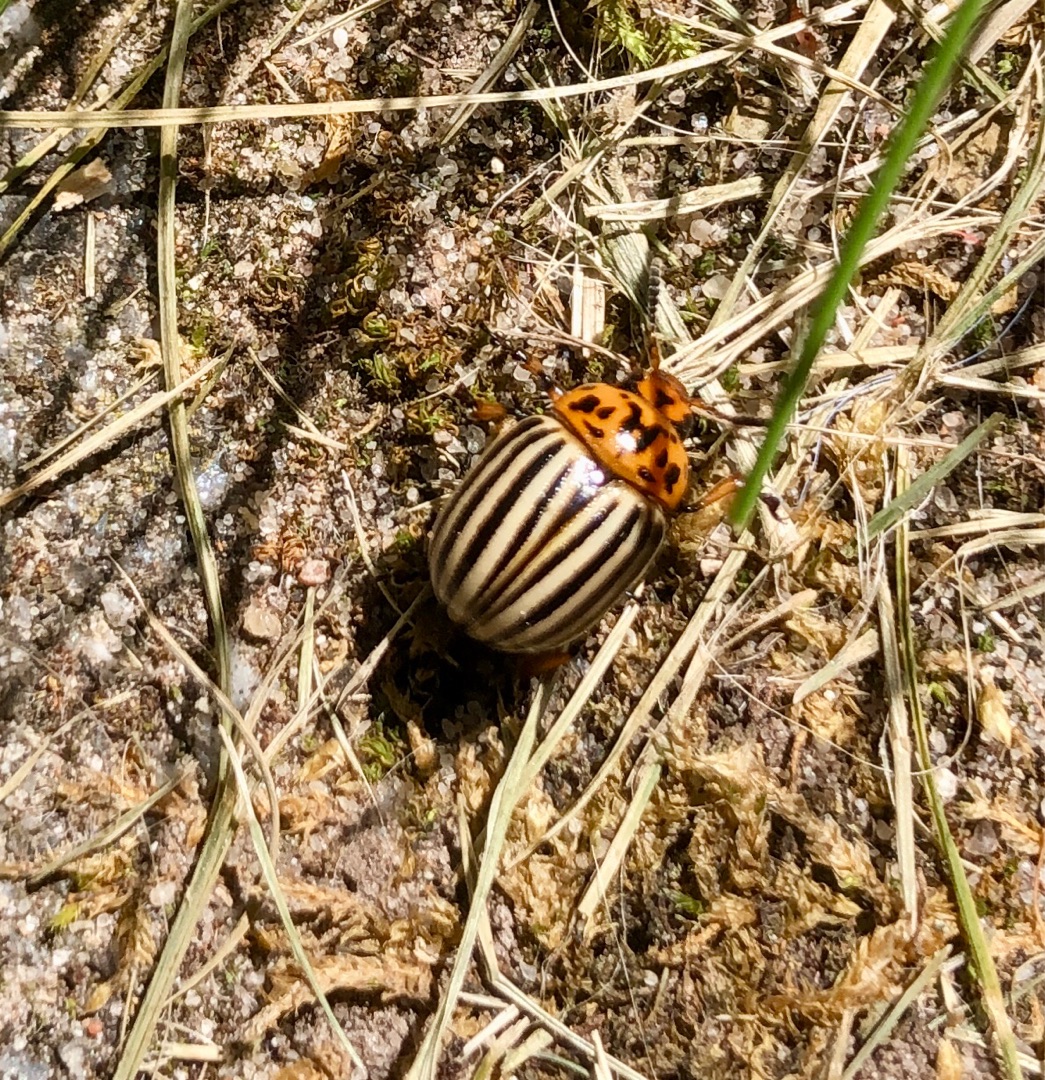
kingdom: Animalia
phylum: Arthropoda
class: Insecta
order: Coleoptera
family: Chrysomelidae
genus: Leptinotarsa
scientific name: Leptinotarsa decemlineata
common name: Coloradobille
